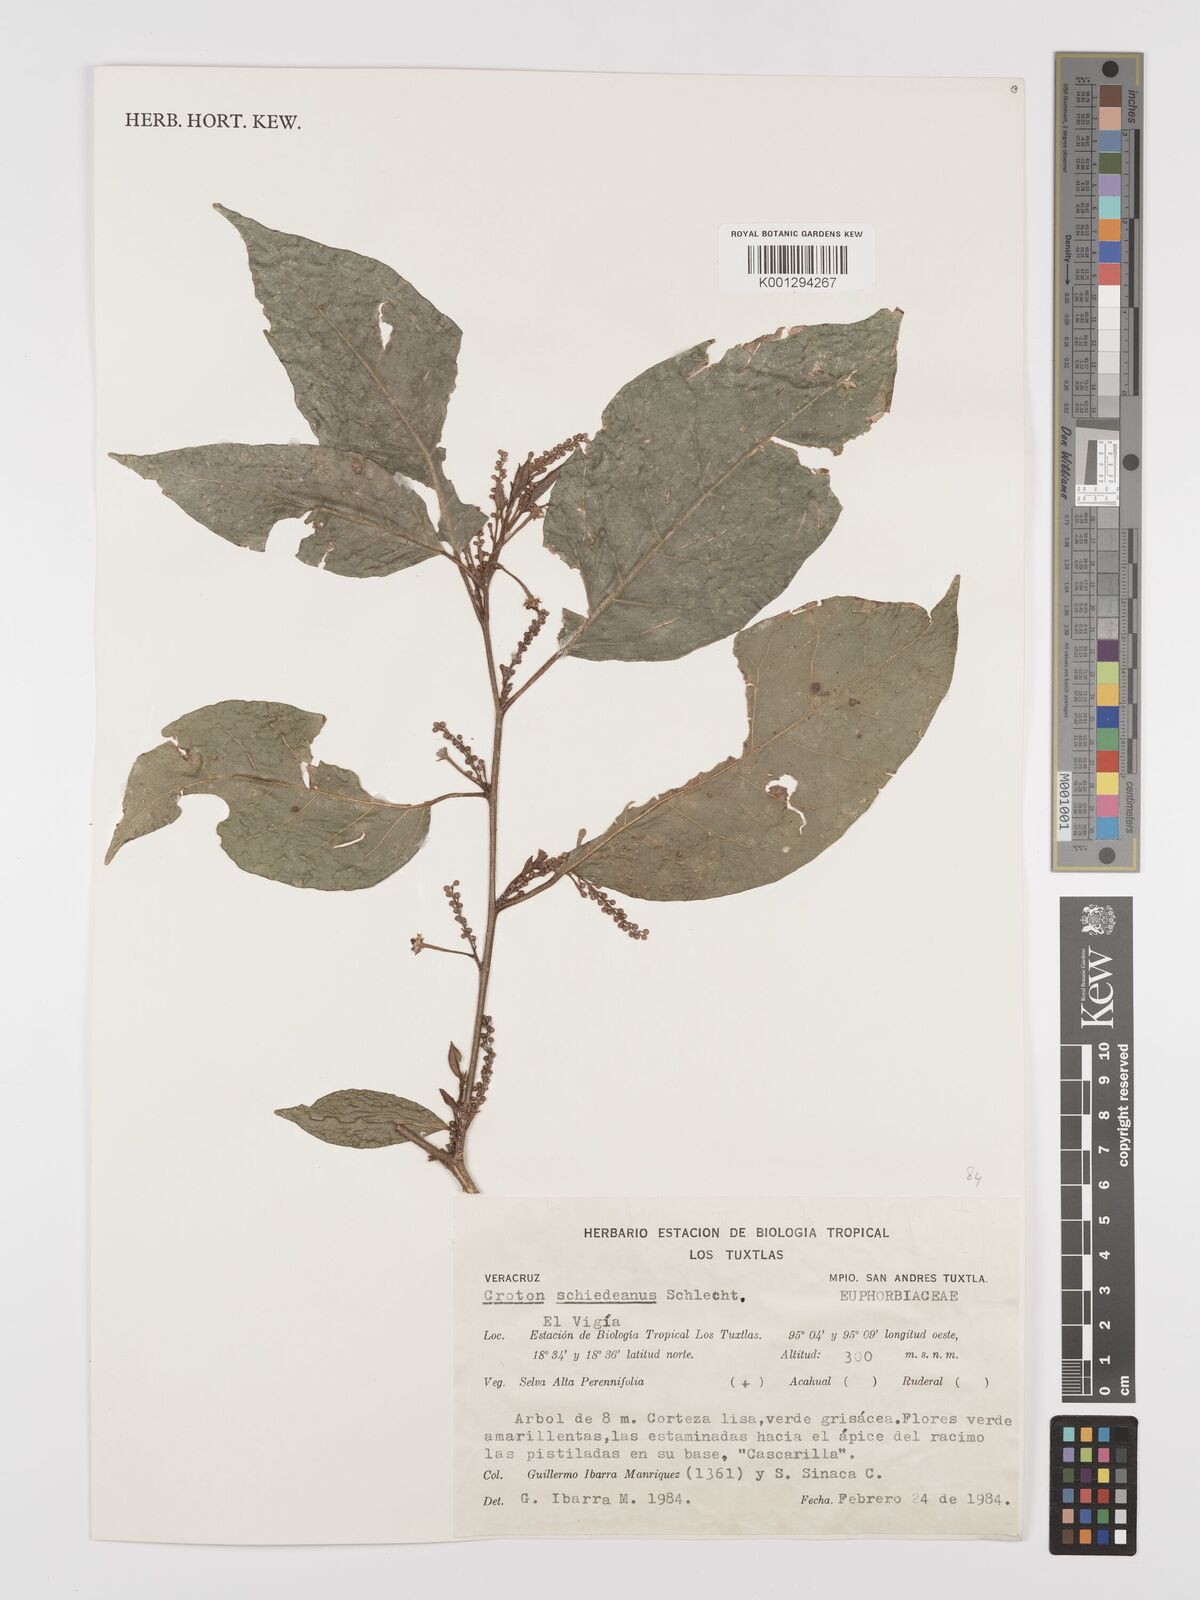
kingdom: Plantae
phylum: Tracheophyta
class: Magnoliopsida
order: Malpighiales
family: Euphorbiaceae
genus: Croton
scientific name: Croton schiedeanus
